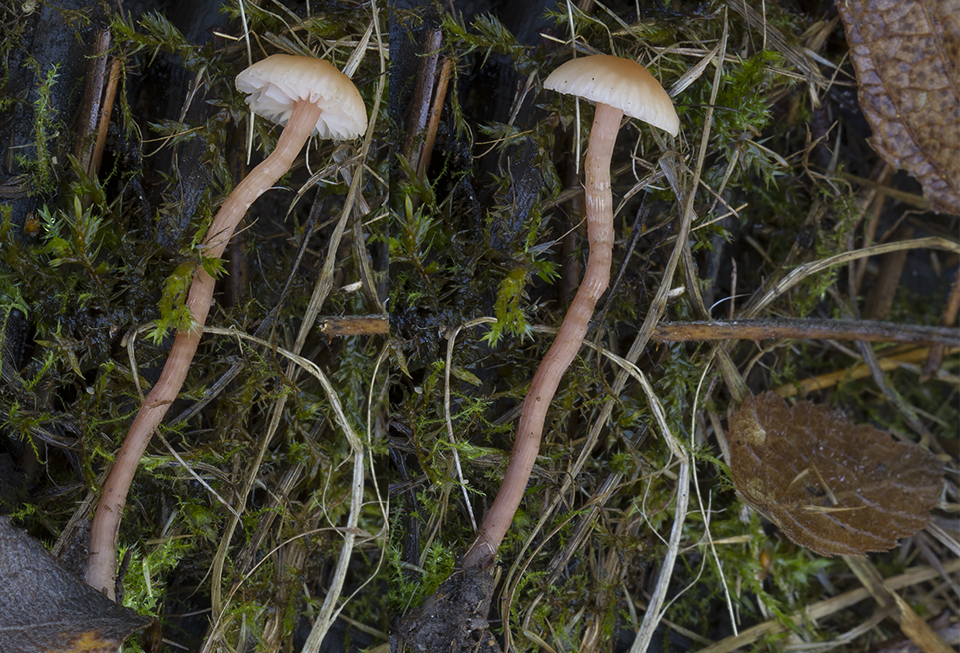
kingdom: Fungi
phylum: Basidiomycota
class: Agaricomycetes
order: Agaricales
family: Hydnangiaceae
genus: Laccaria
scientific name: Laccaria laccata
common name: rød ametysthat
